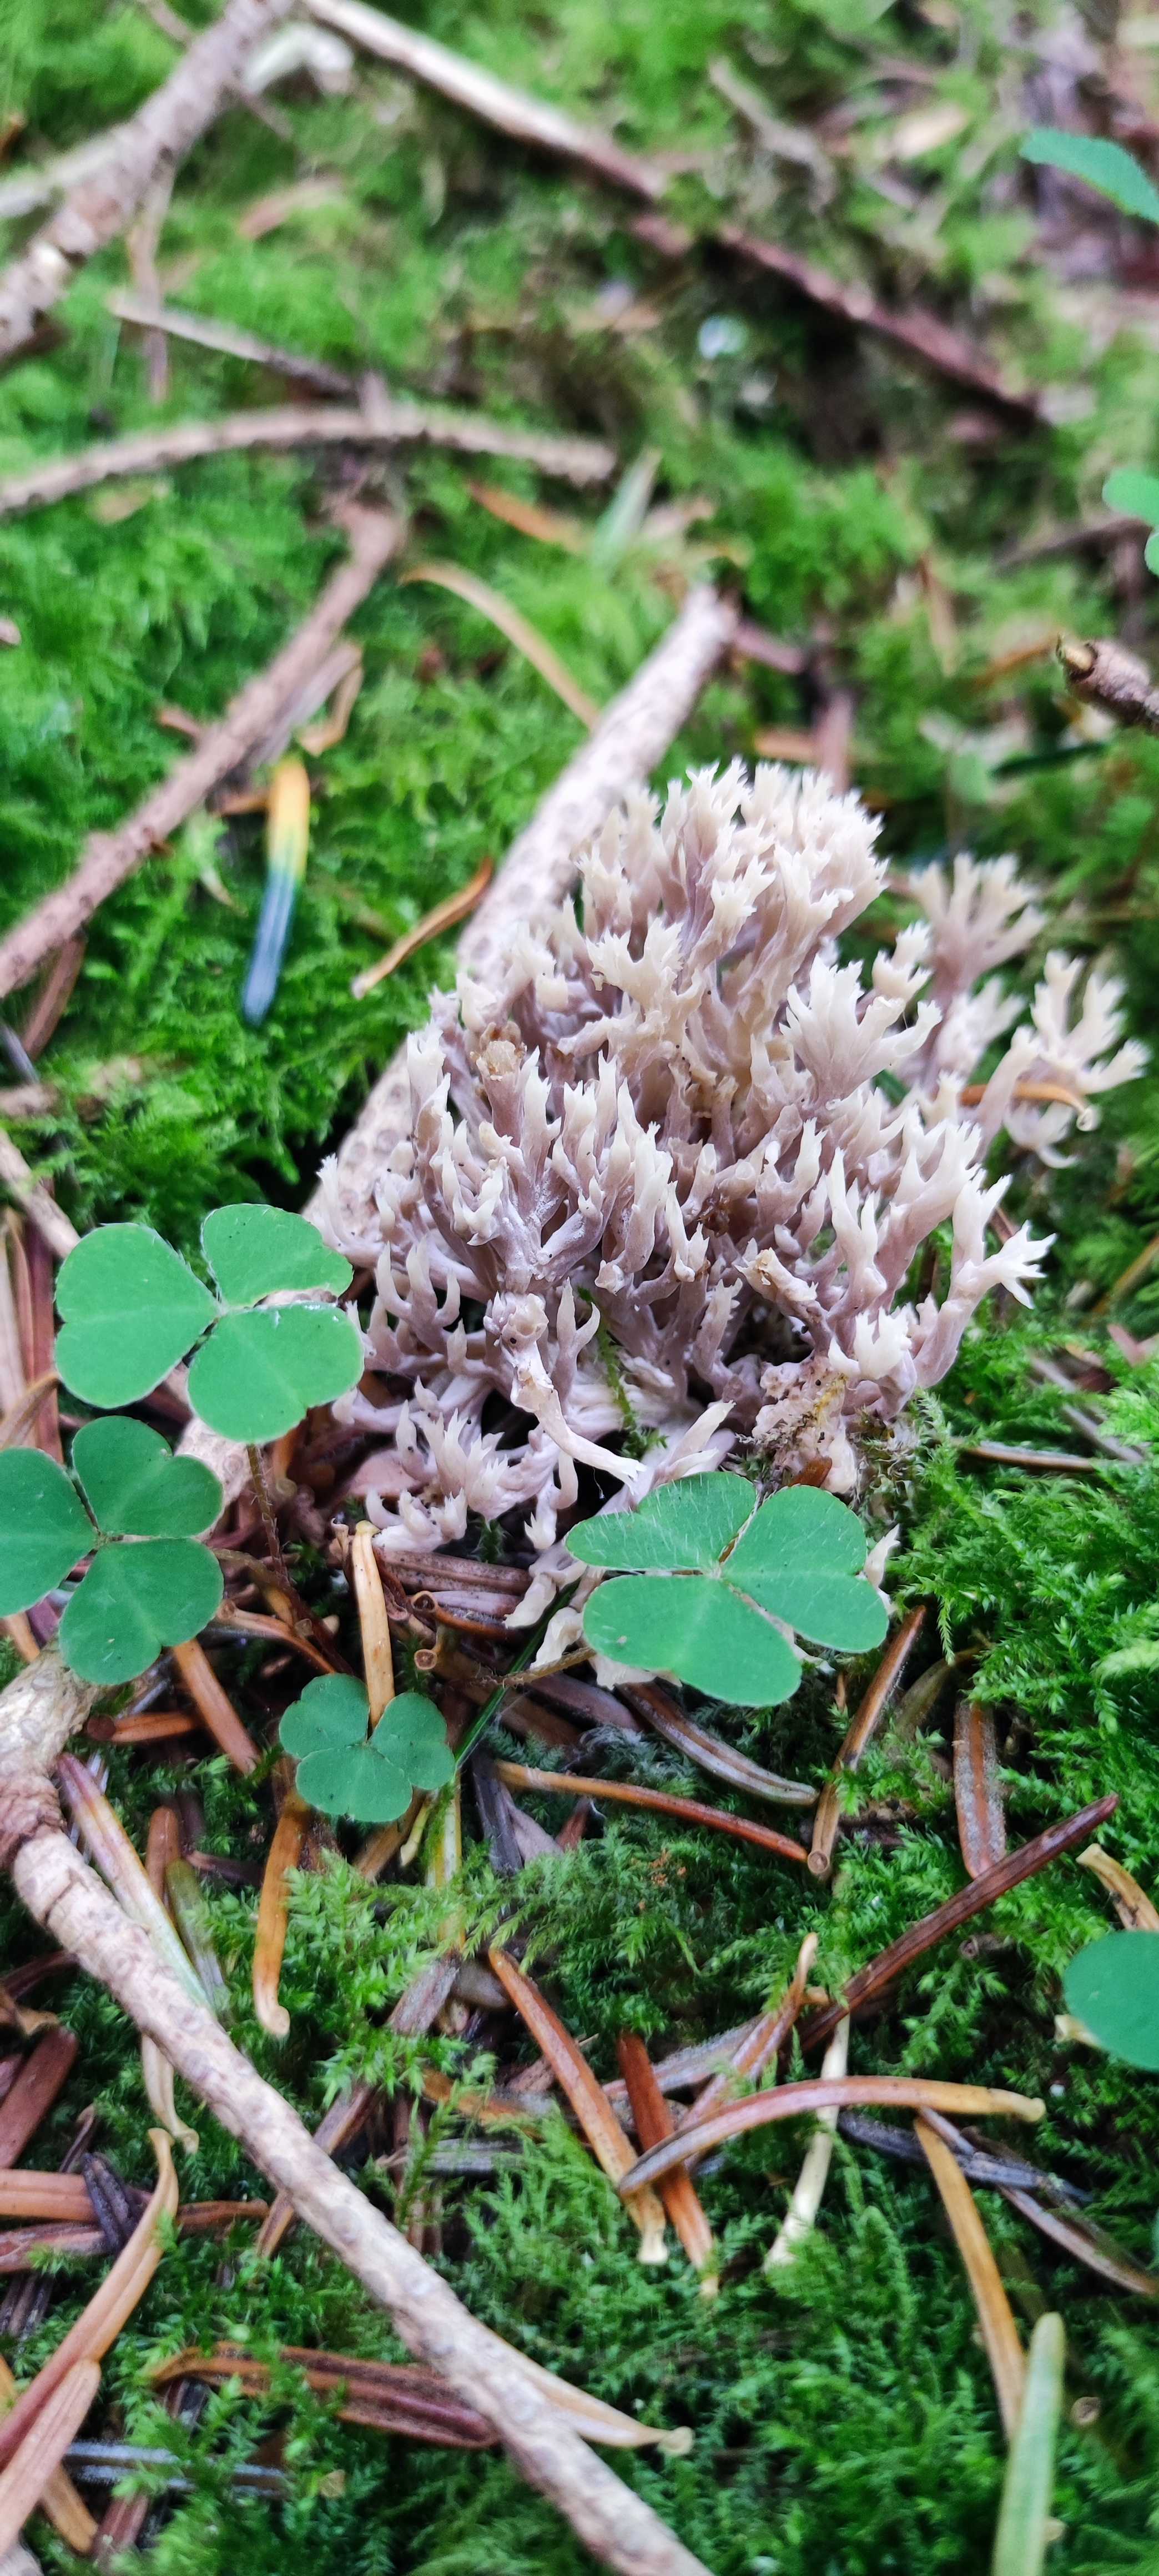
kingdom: Fungi
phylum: Basidiomycota
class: Agaricomycetes
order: Cantharellales
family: Hydnaceae
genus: Clavulina
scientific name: Clavulina
